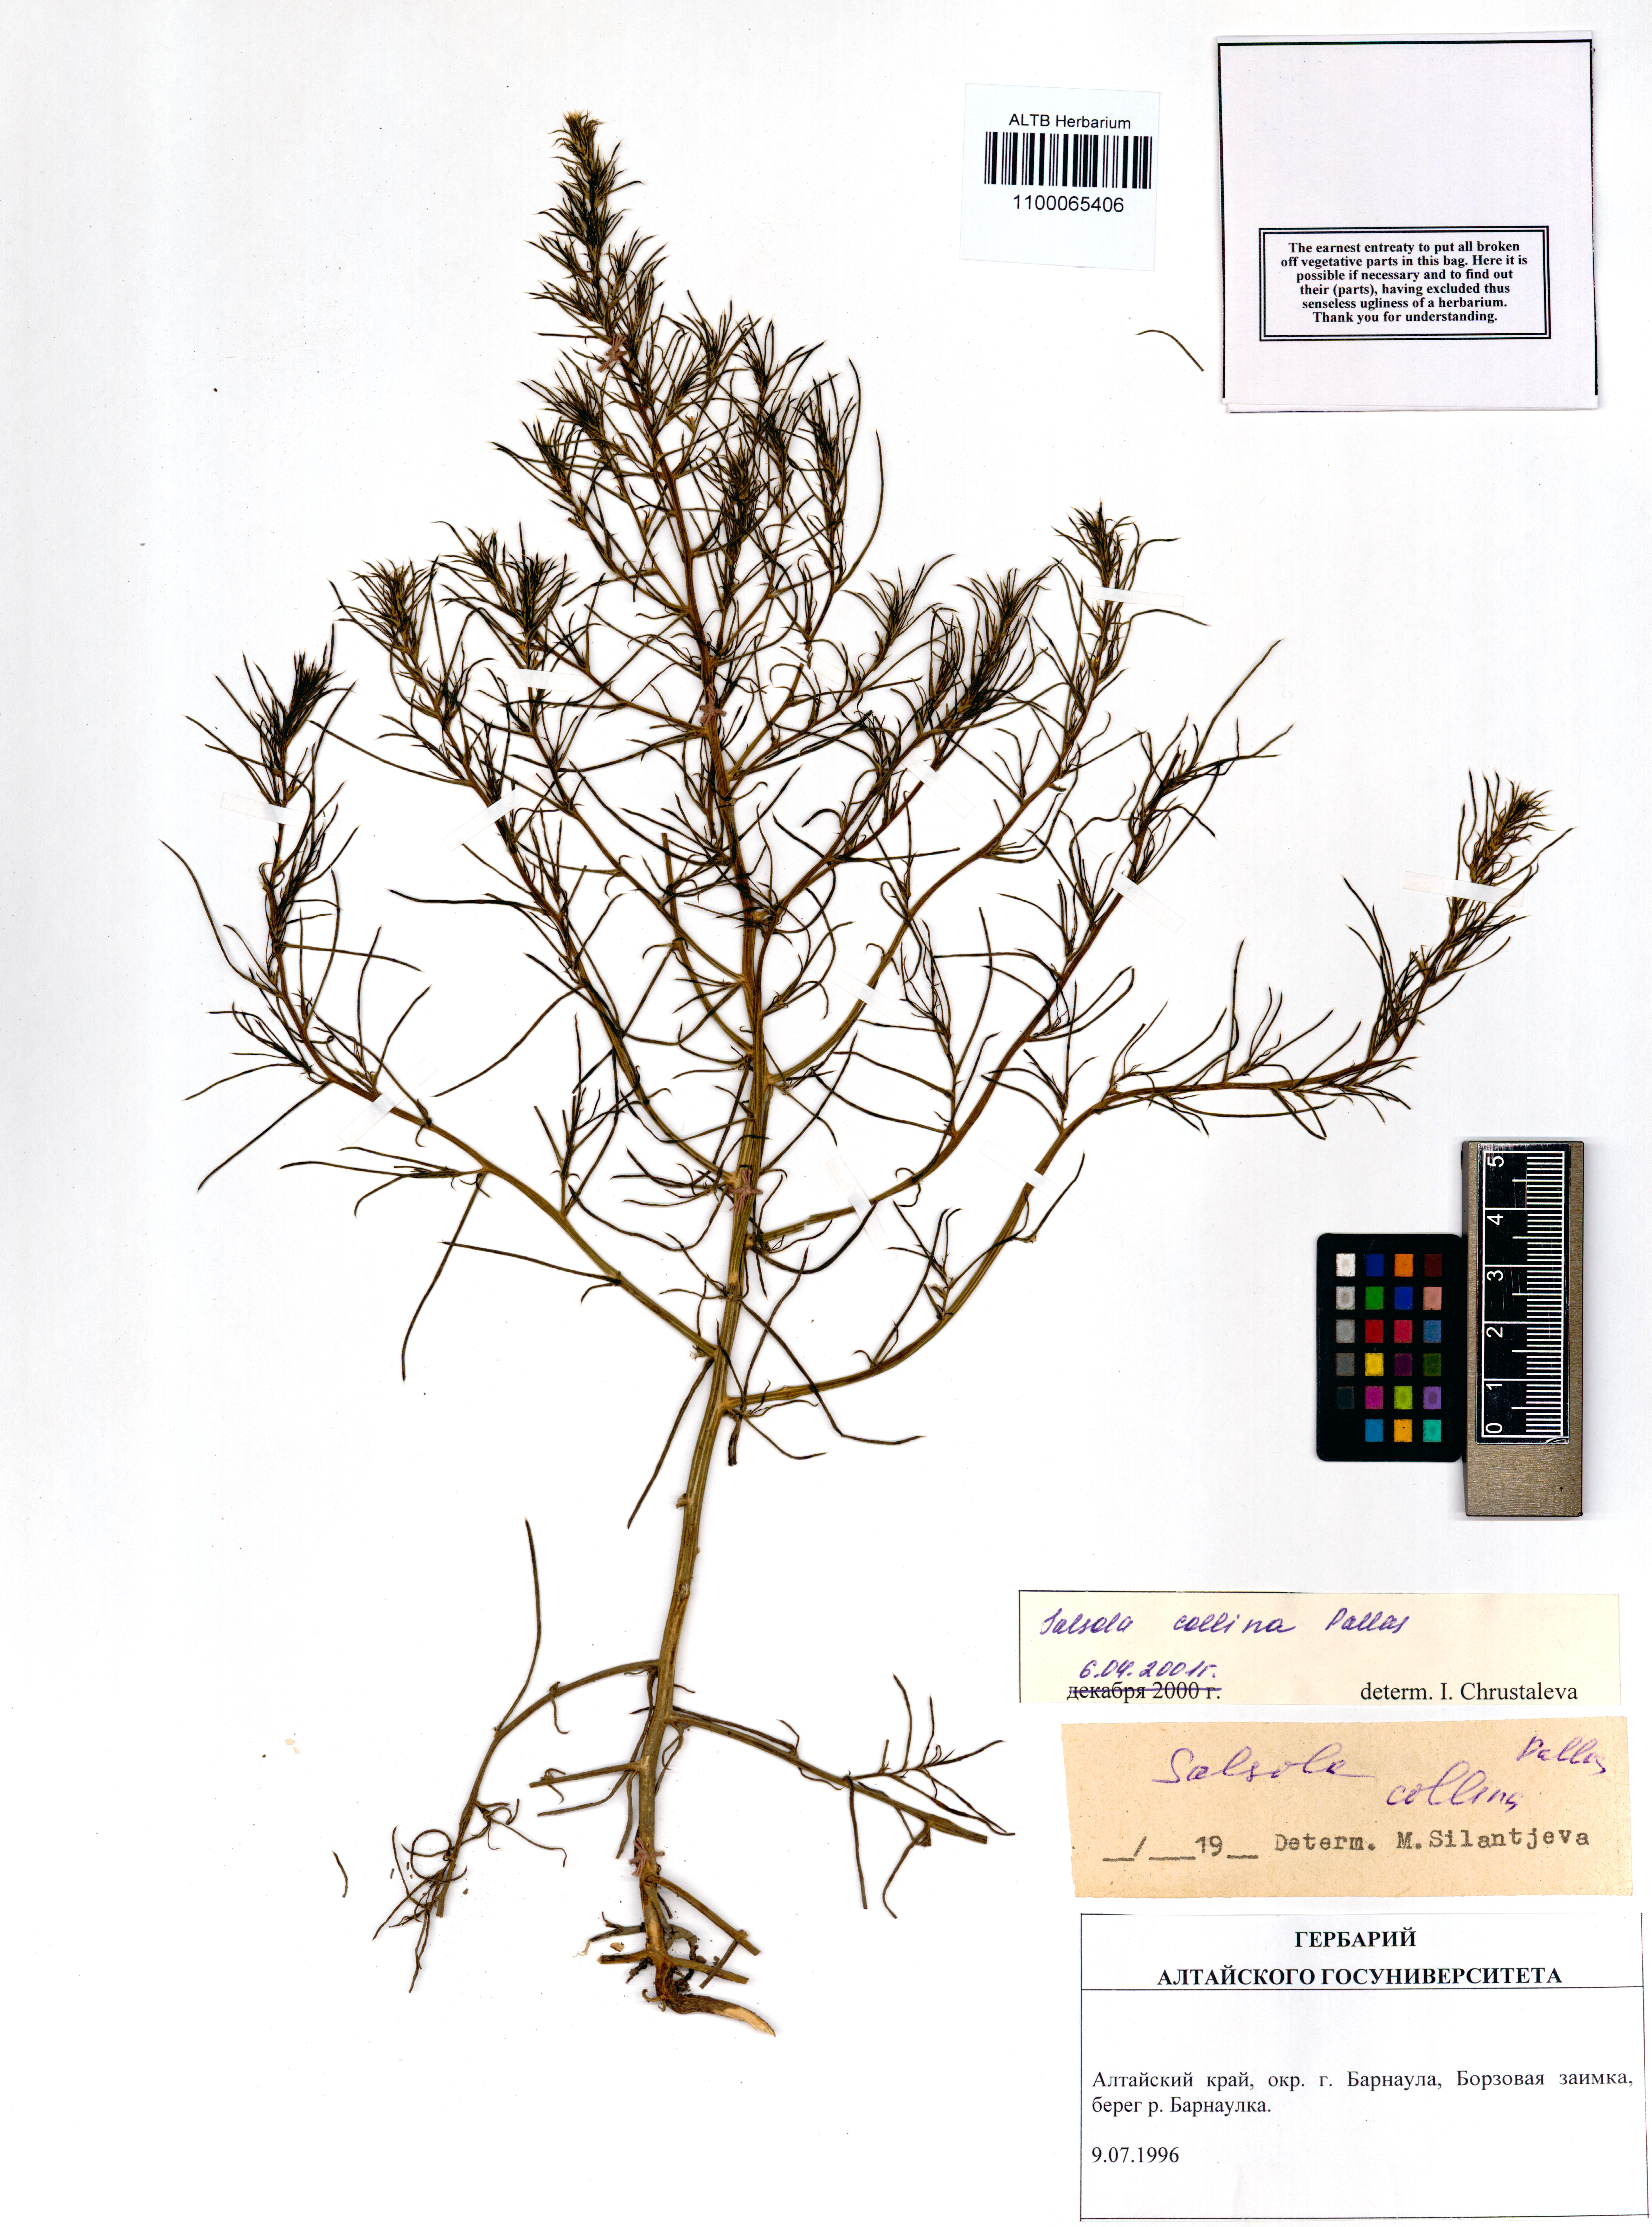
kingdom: Plantae
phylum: Tracheophyta
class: Magnoliopsida
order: Caryophyllales
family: Amaranthaceae
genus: Salsola
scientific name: Salsola collina
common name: Tumbleweed
